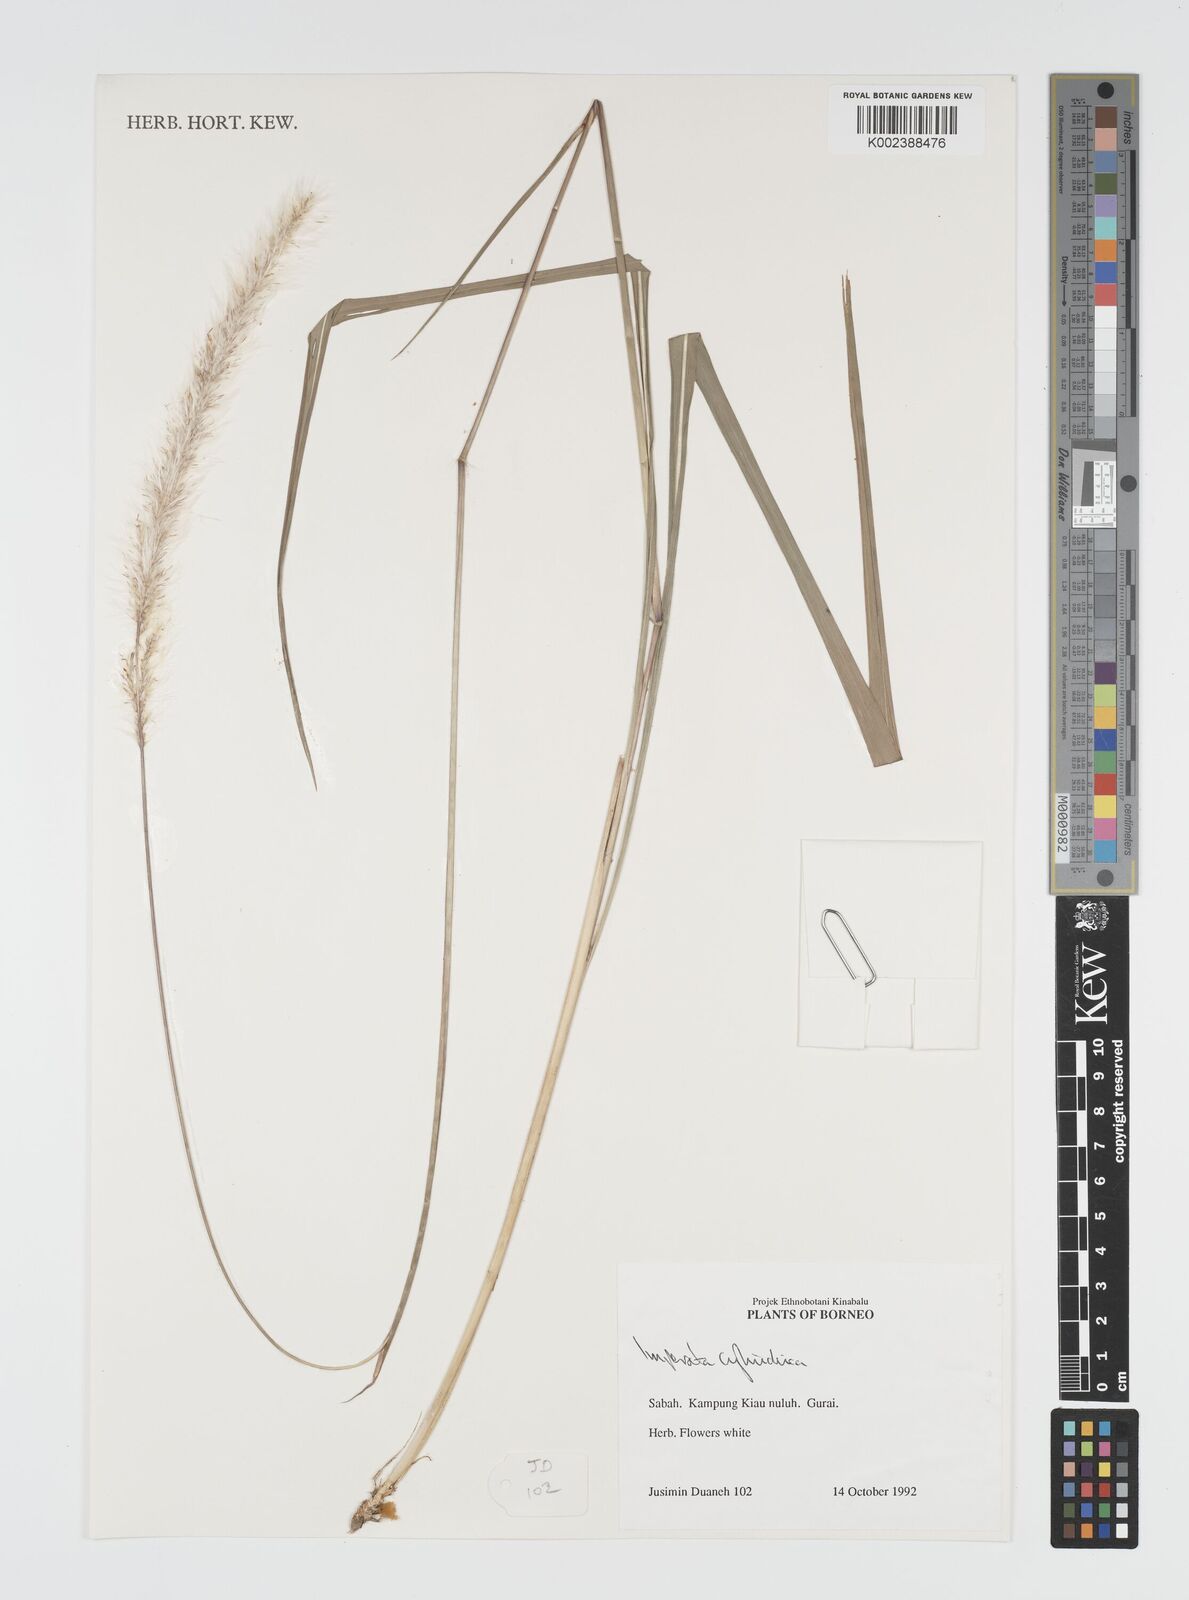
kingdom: Plantae
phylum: Tracheophyta
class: Liliopsida
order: Poales
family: Poaceae
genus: Imperata
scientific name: Imperata cylindrica
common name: Cogongrass
